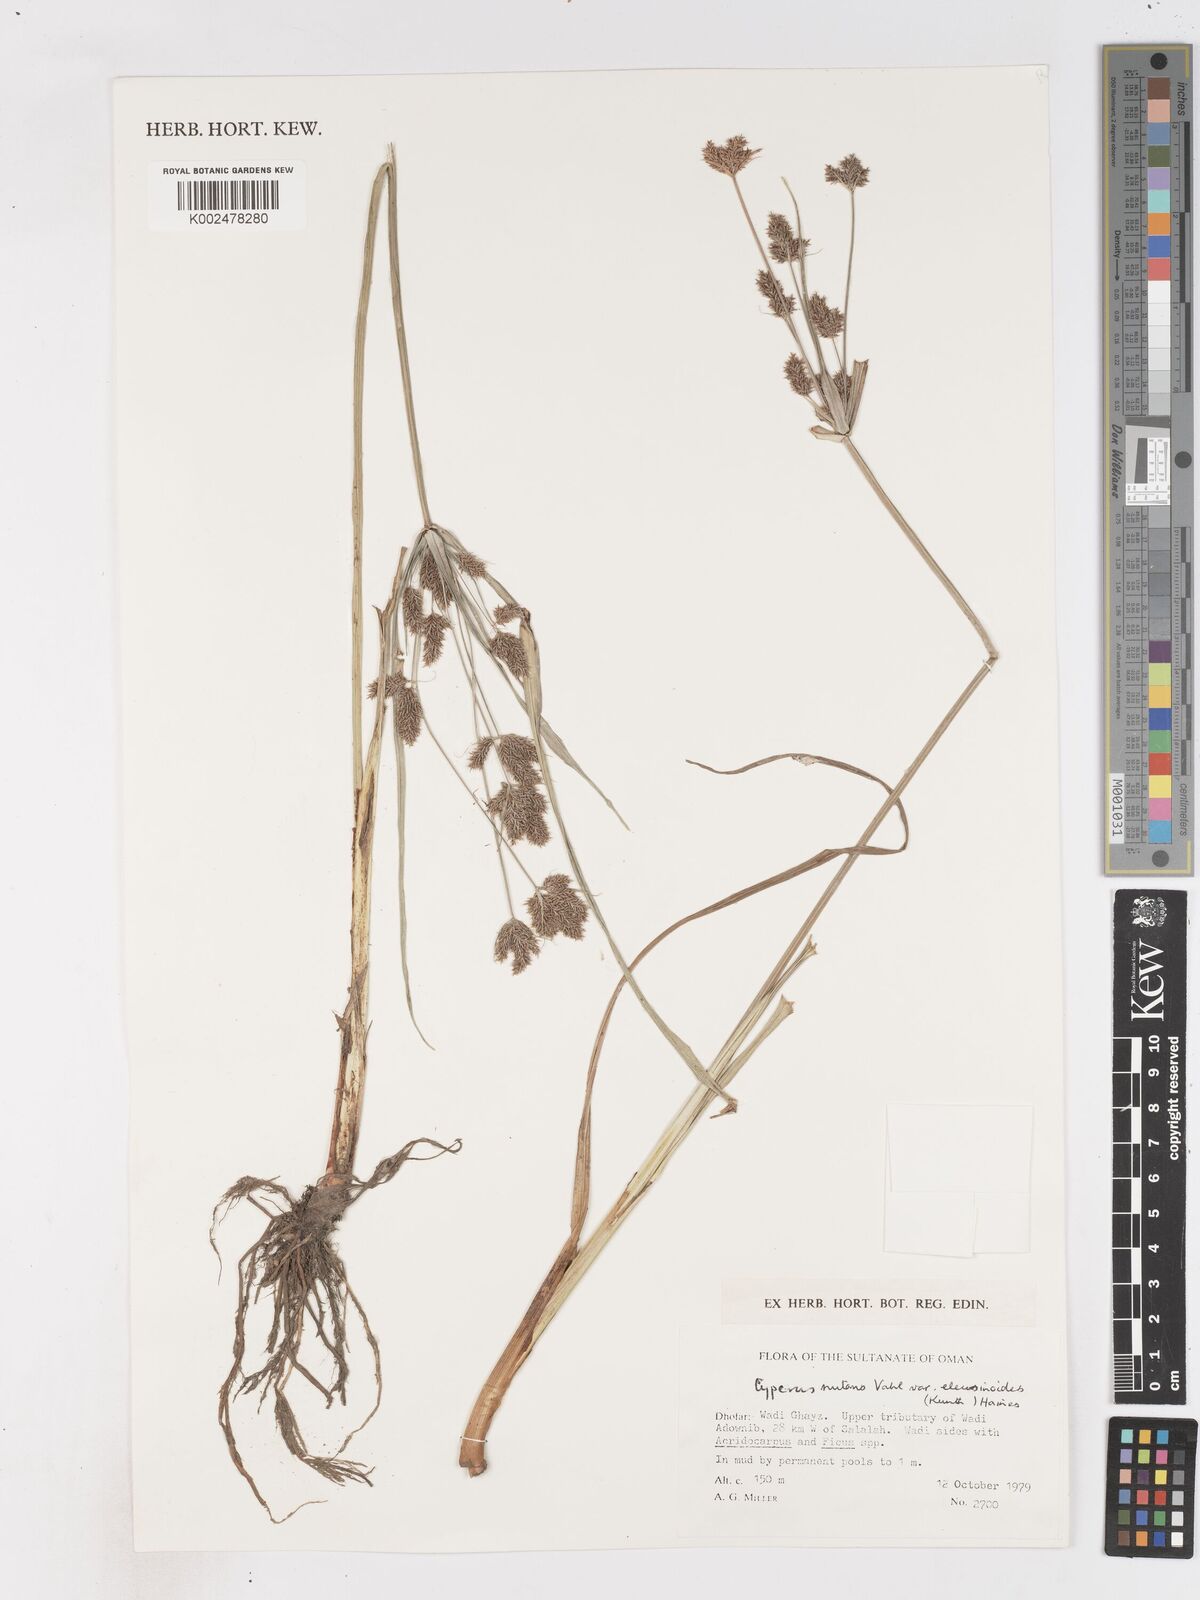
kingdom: Plantae
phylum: Tracheophyta
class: Liliopsida
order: Poales
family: Cyperaceae
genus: Cyperus
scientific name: Cyperus nutans
